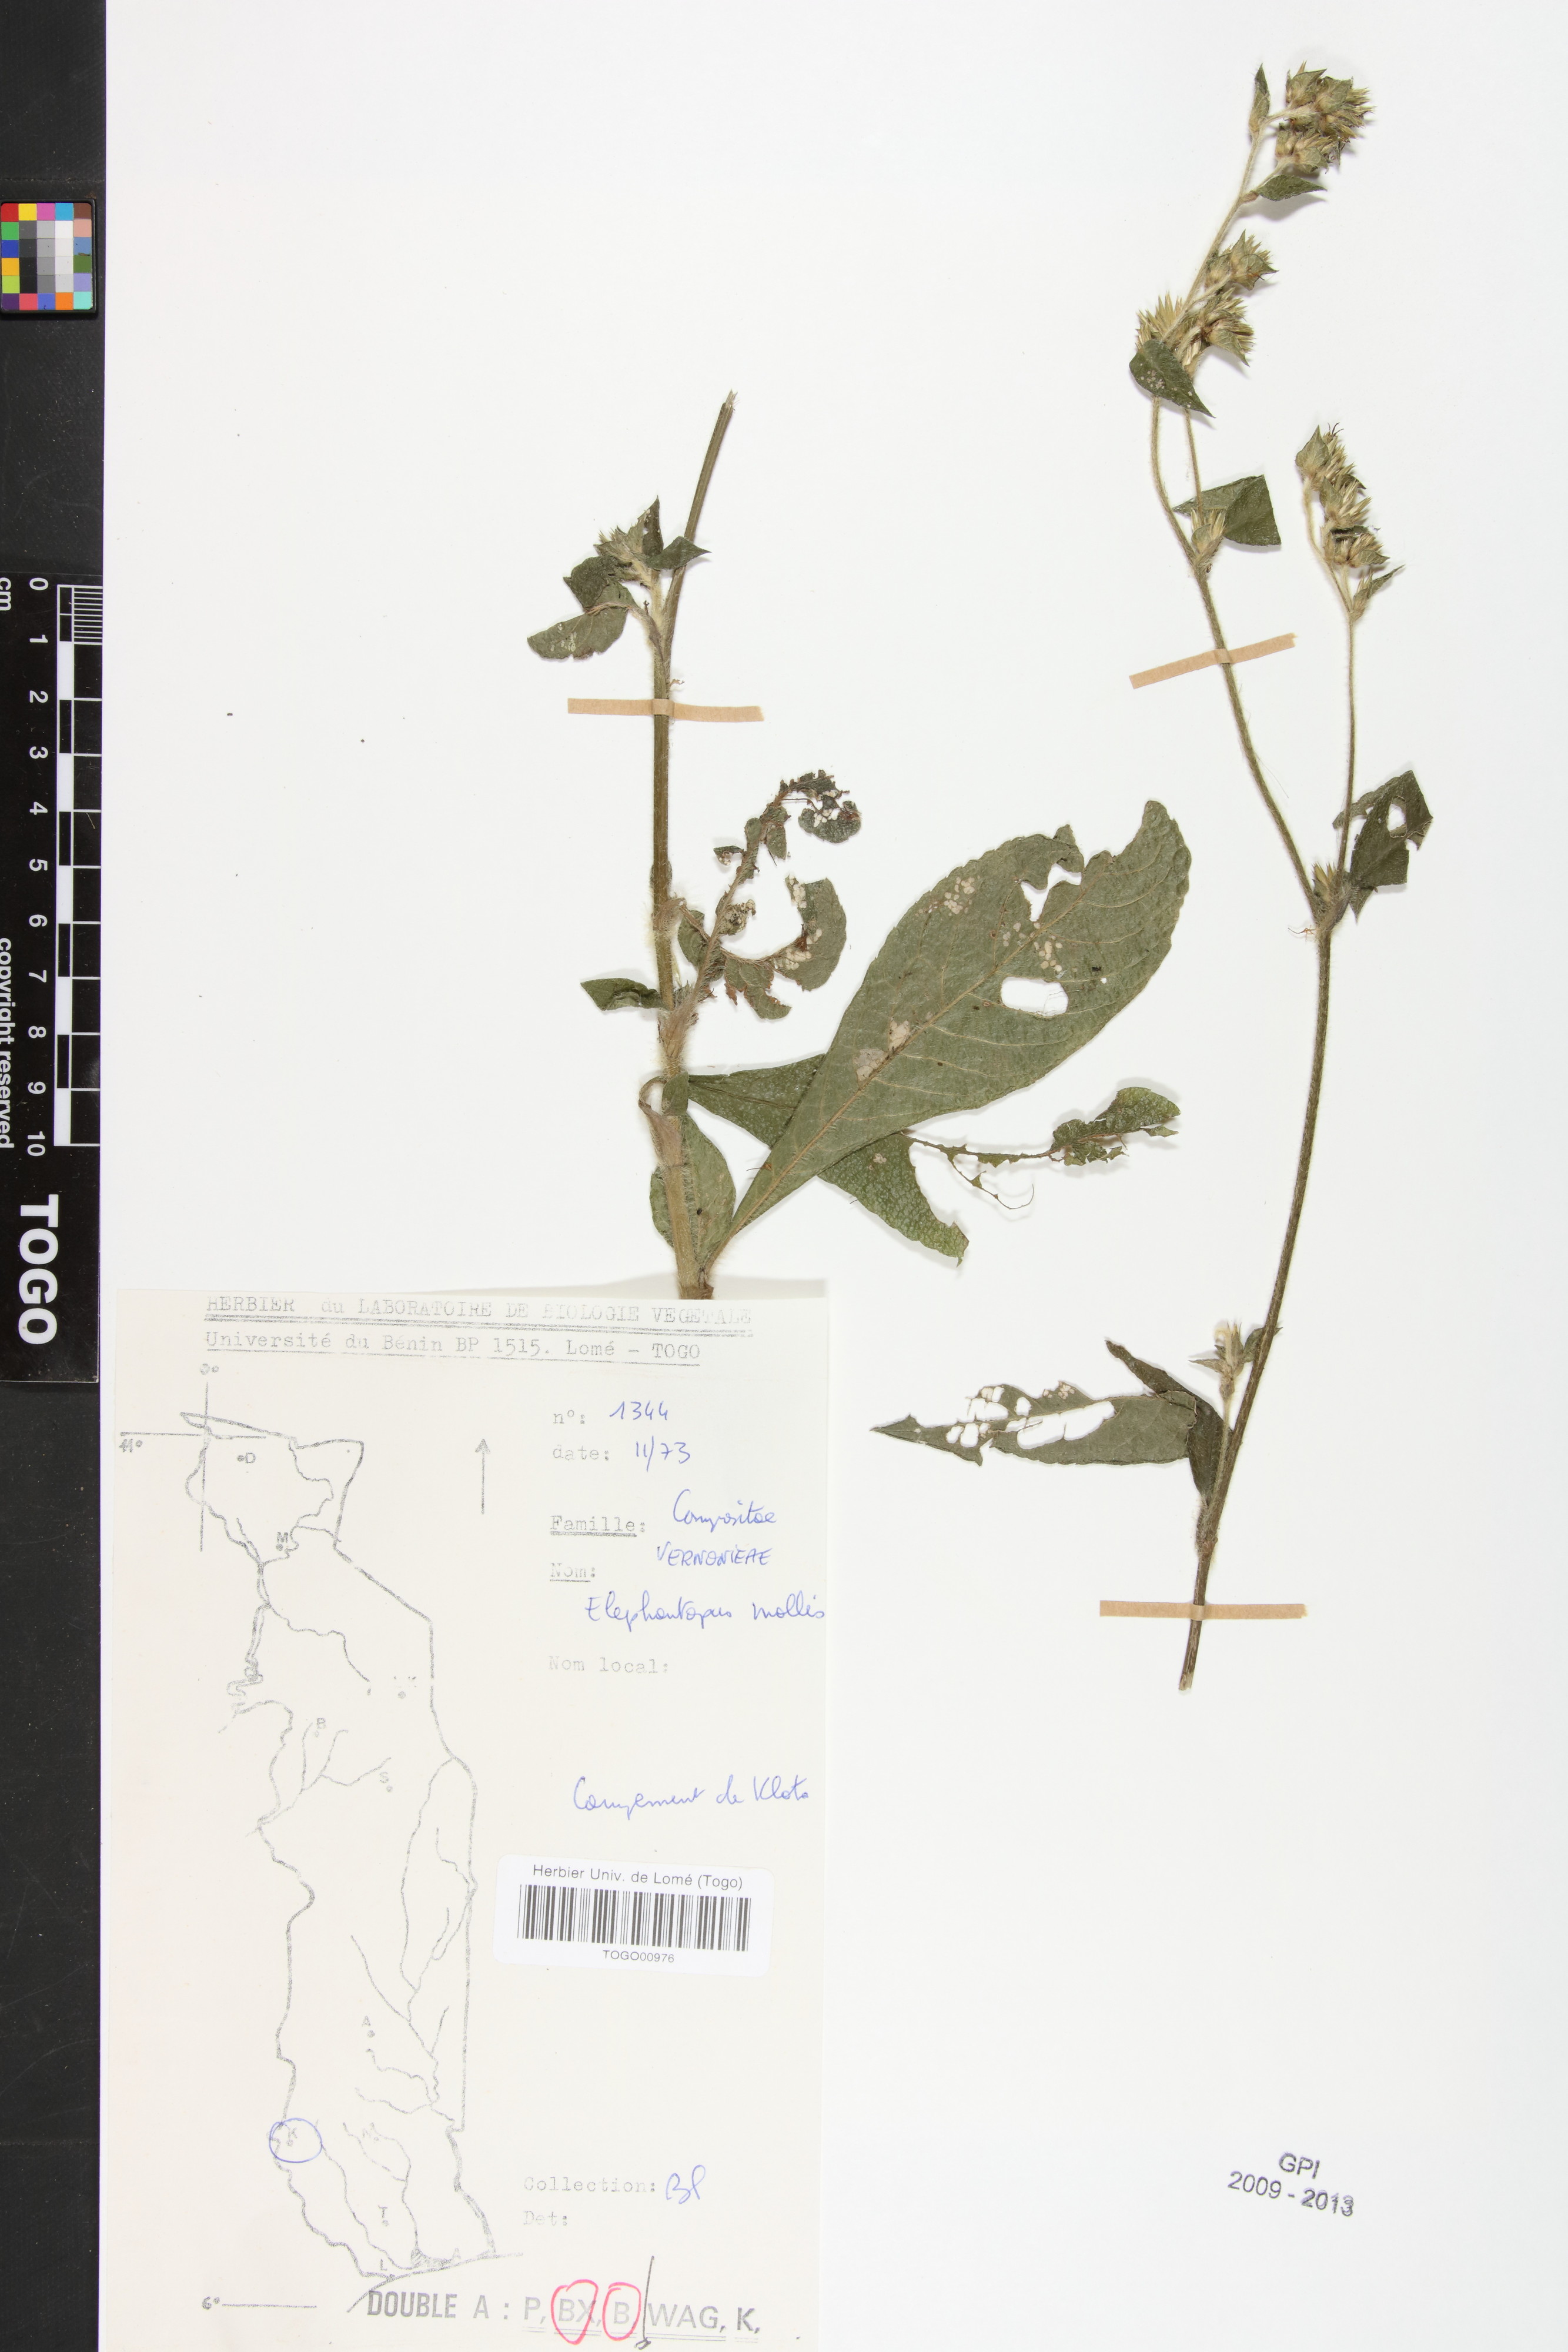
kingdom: Plantae
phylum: Tracheophyta
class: Magnoliopsida
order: Asterales
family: Asteraceae
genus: Elephantopus
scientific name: Elephantopus mollis
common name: Soft elephantsfoot
